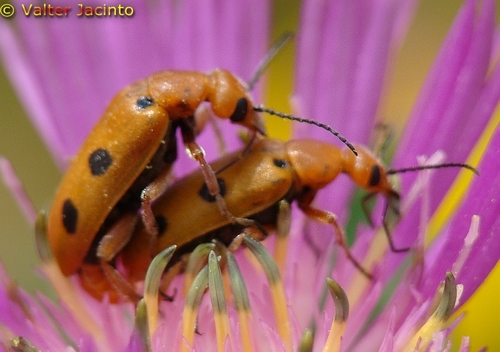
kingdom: Animalia
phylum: Arthropoda
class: Insecta
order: Coleoptera
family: Meloidae
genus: Leptopalpus
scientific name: Leptopalpus rostratus
